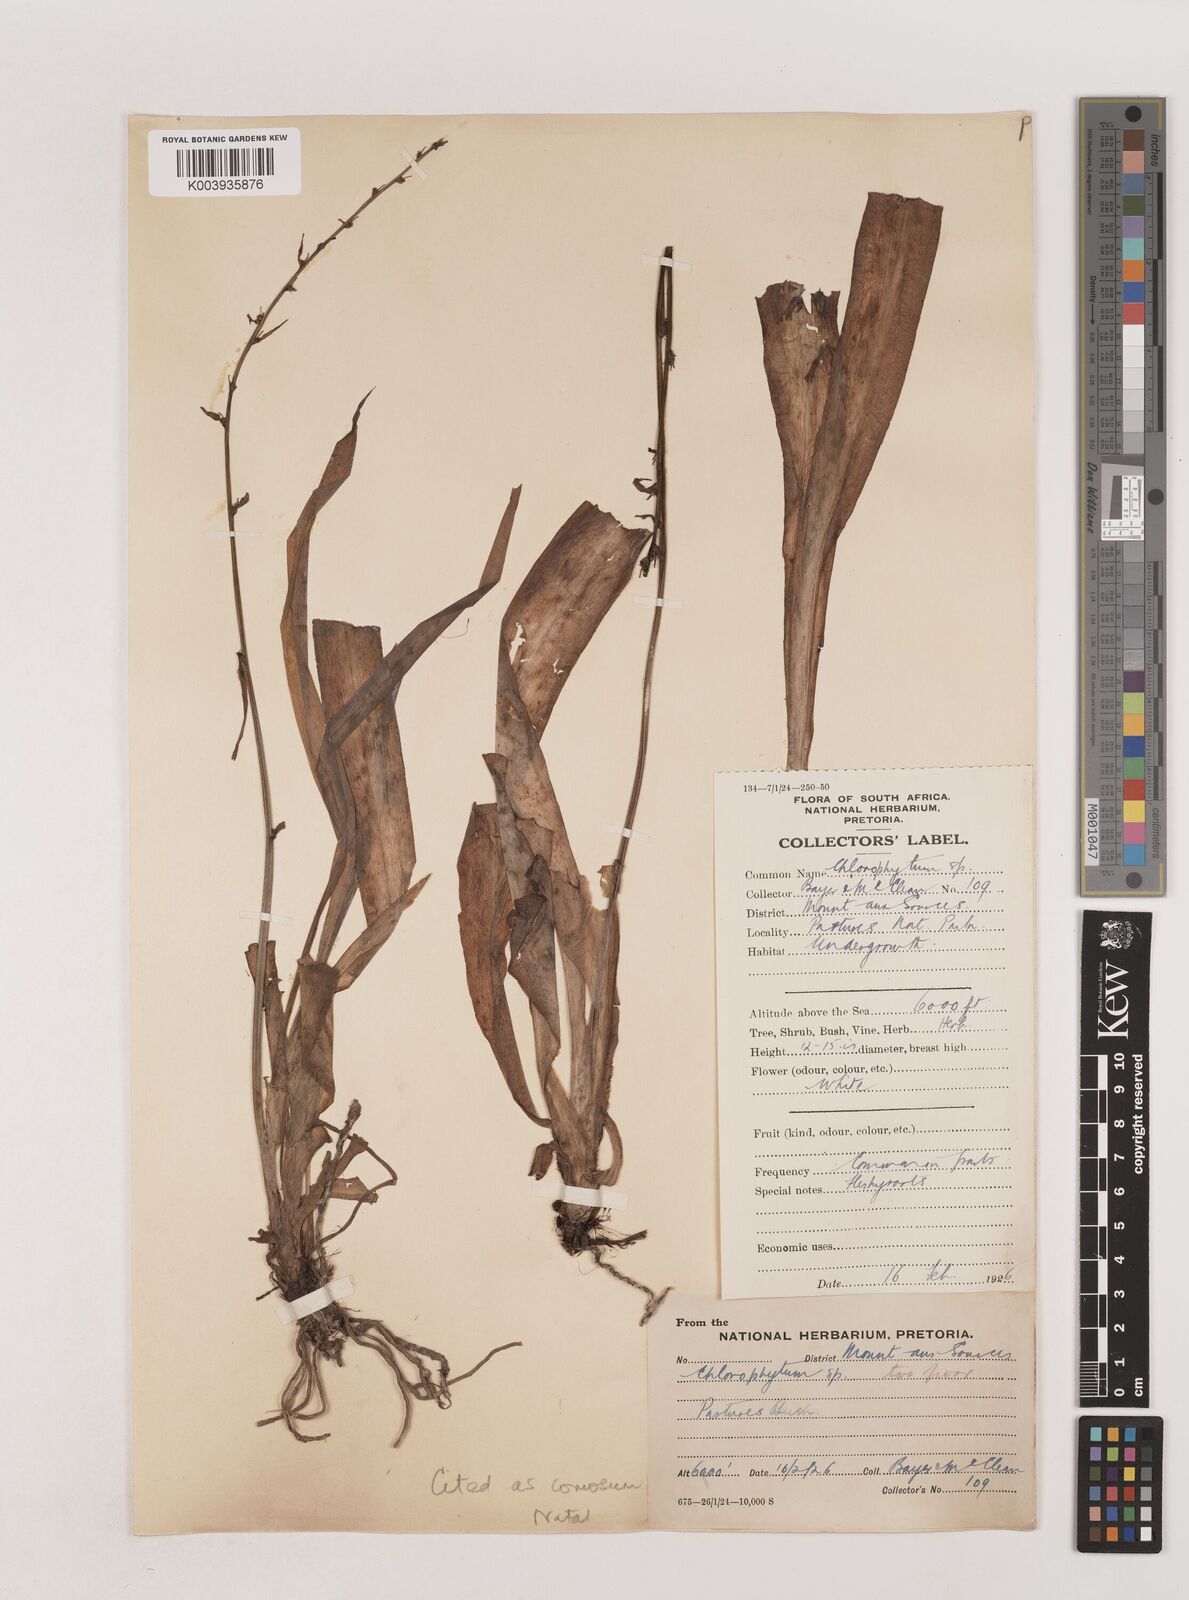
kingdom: Plantae
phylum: Tracheophyta
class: Liliopsida
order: Asparagales
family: Asparagaceae
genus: Chlorophytum
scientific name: Chlorophytum comosum
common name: Spider plant
